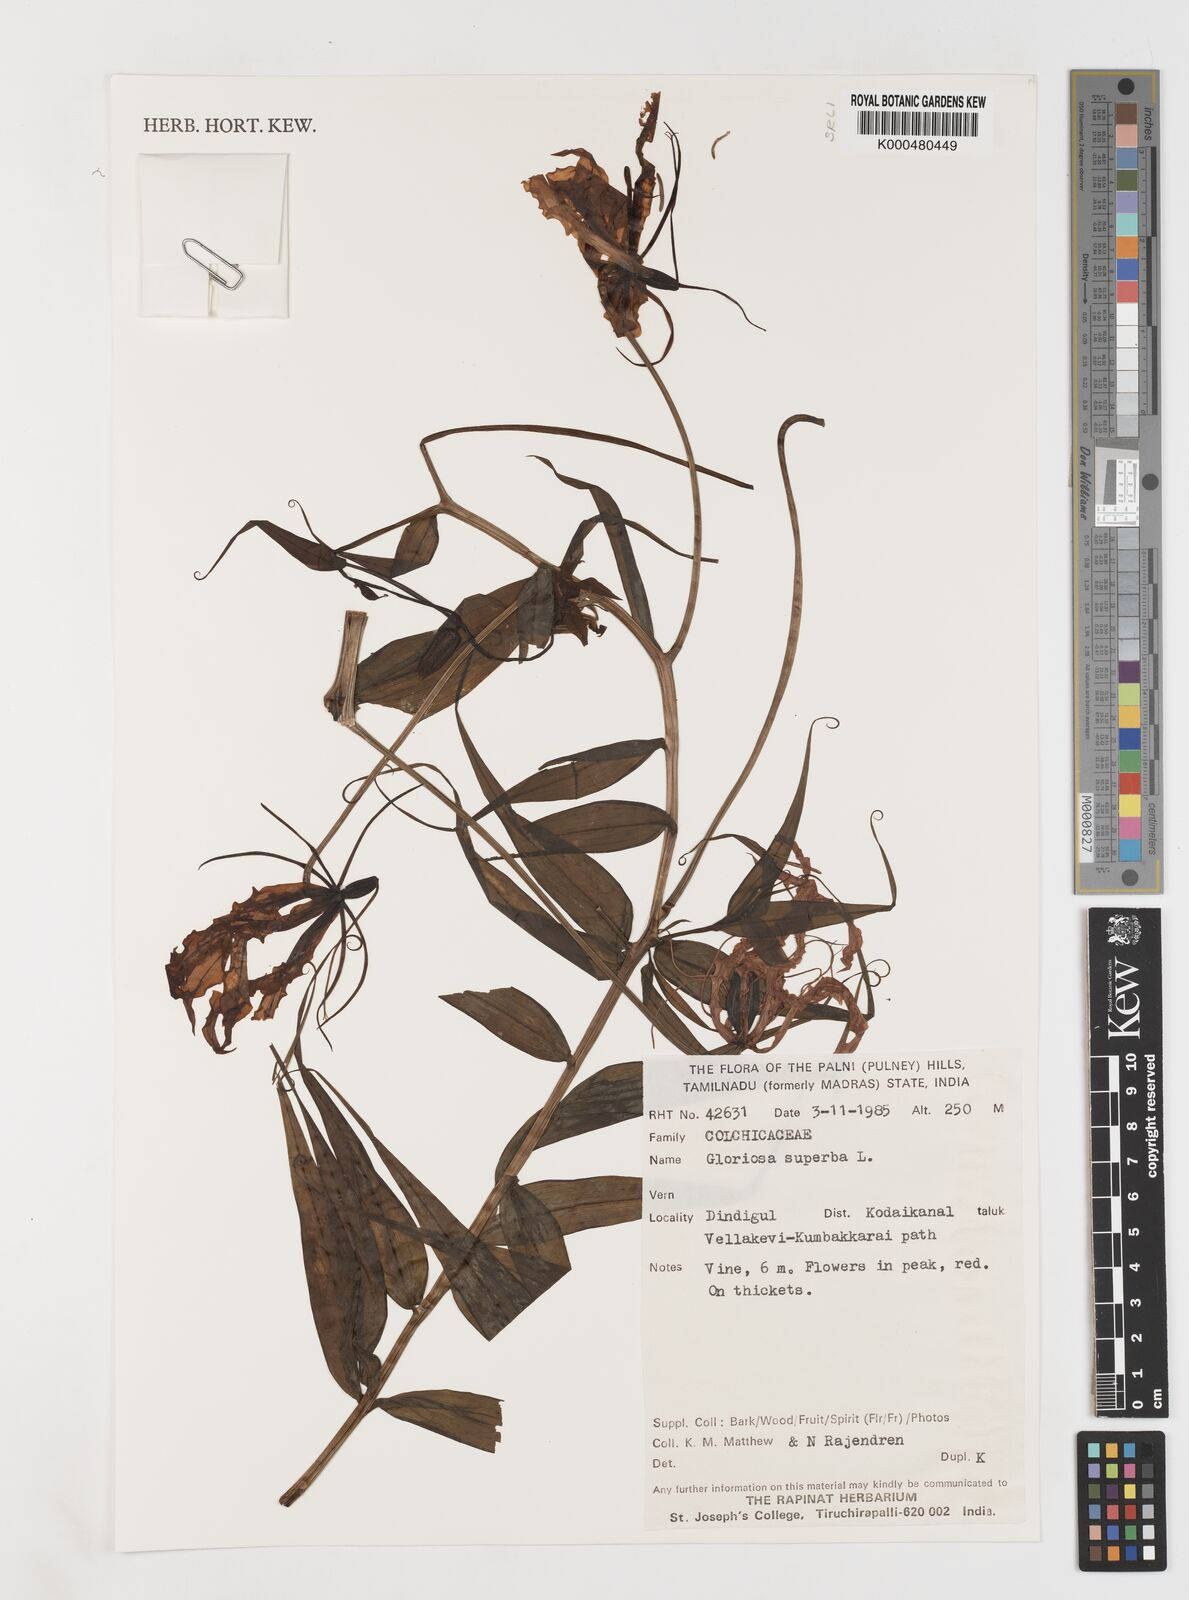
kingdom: Plantae
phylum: Tracheophyta
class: Liliopsida
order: Liliales
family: Colchicaceae
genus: Gloriosa
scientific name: Gloriosa superba
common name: Flame lily
